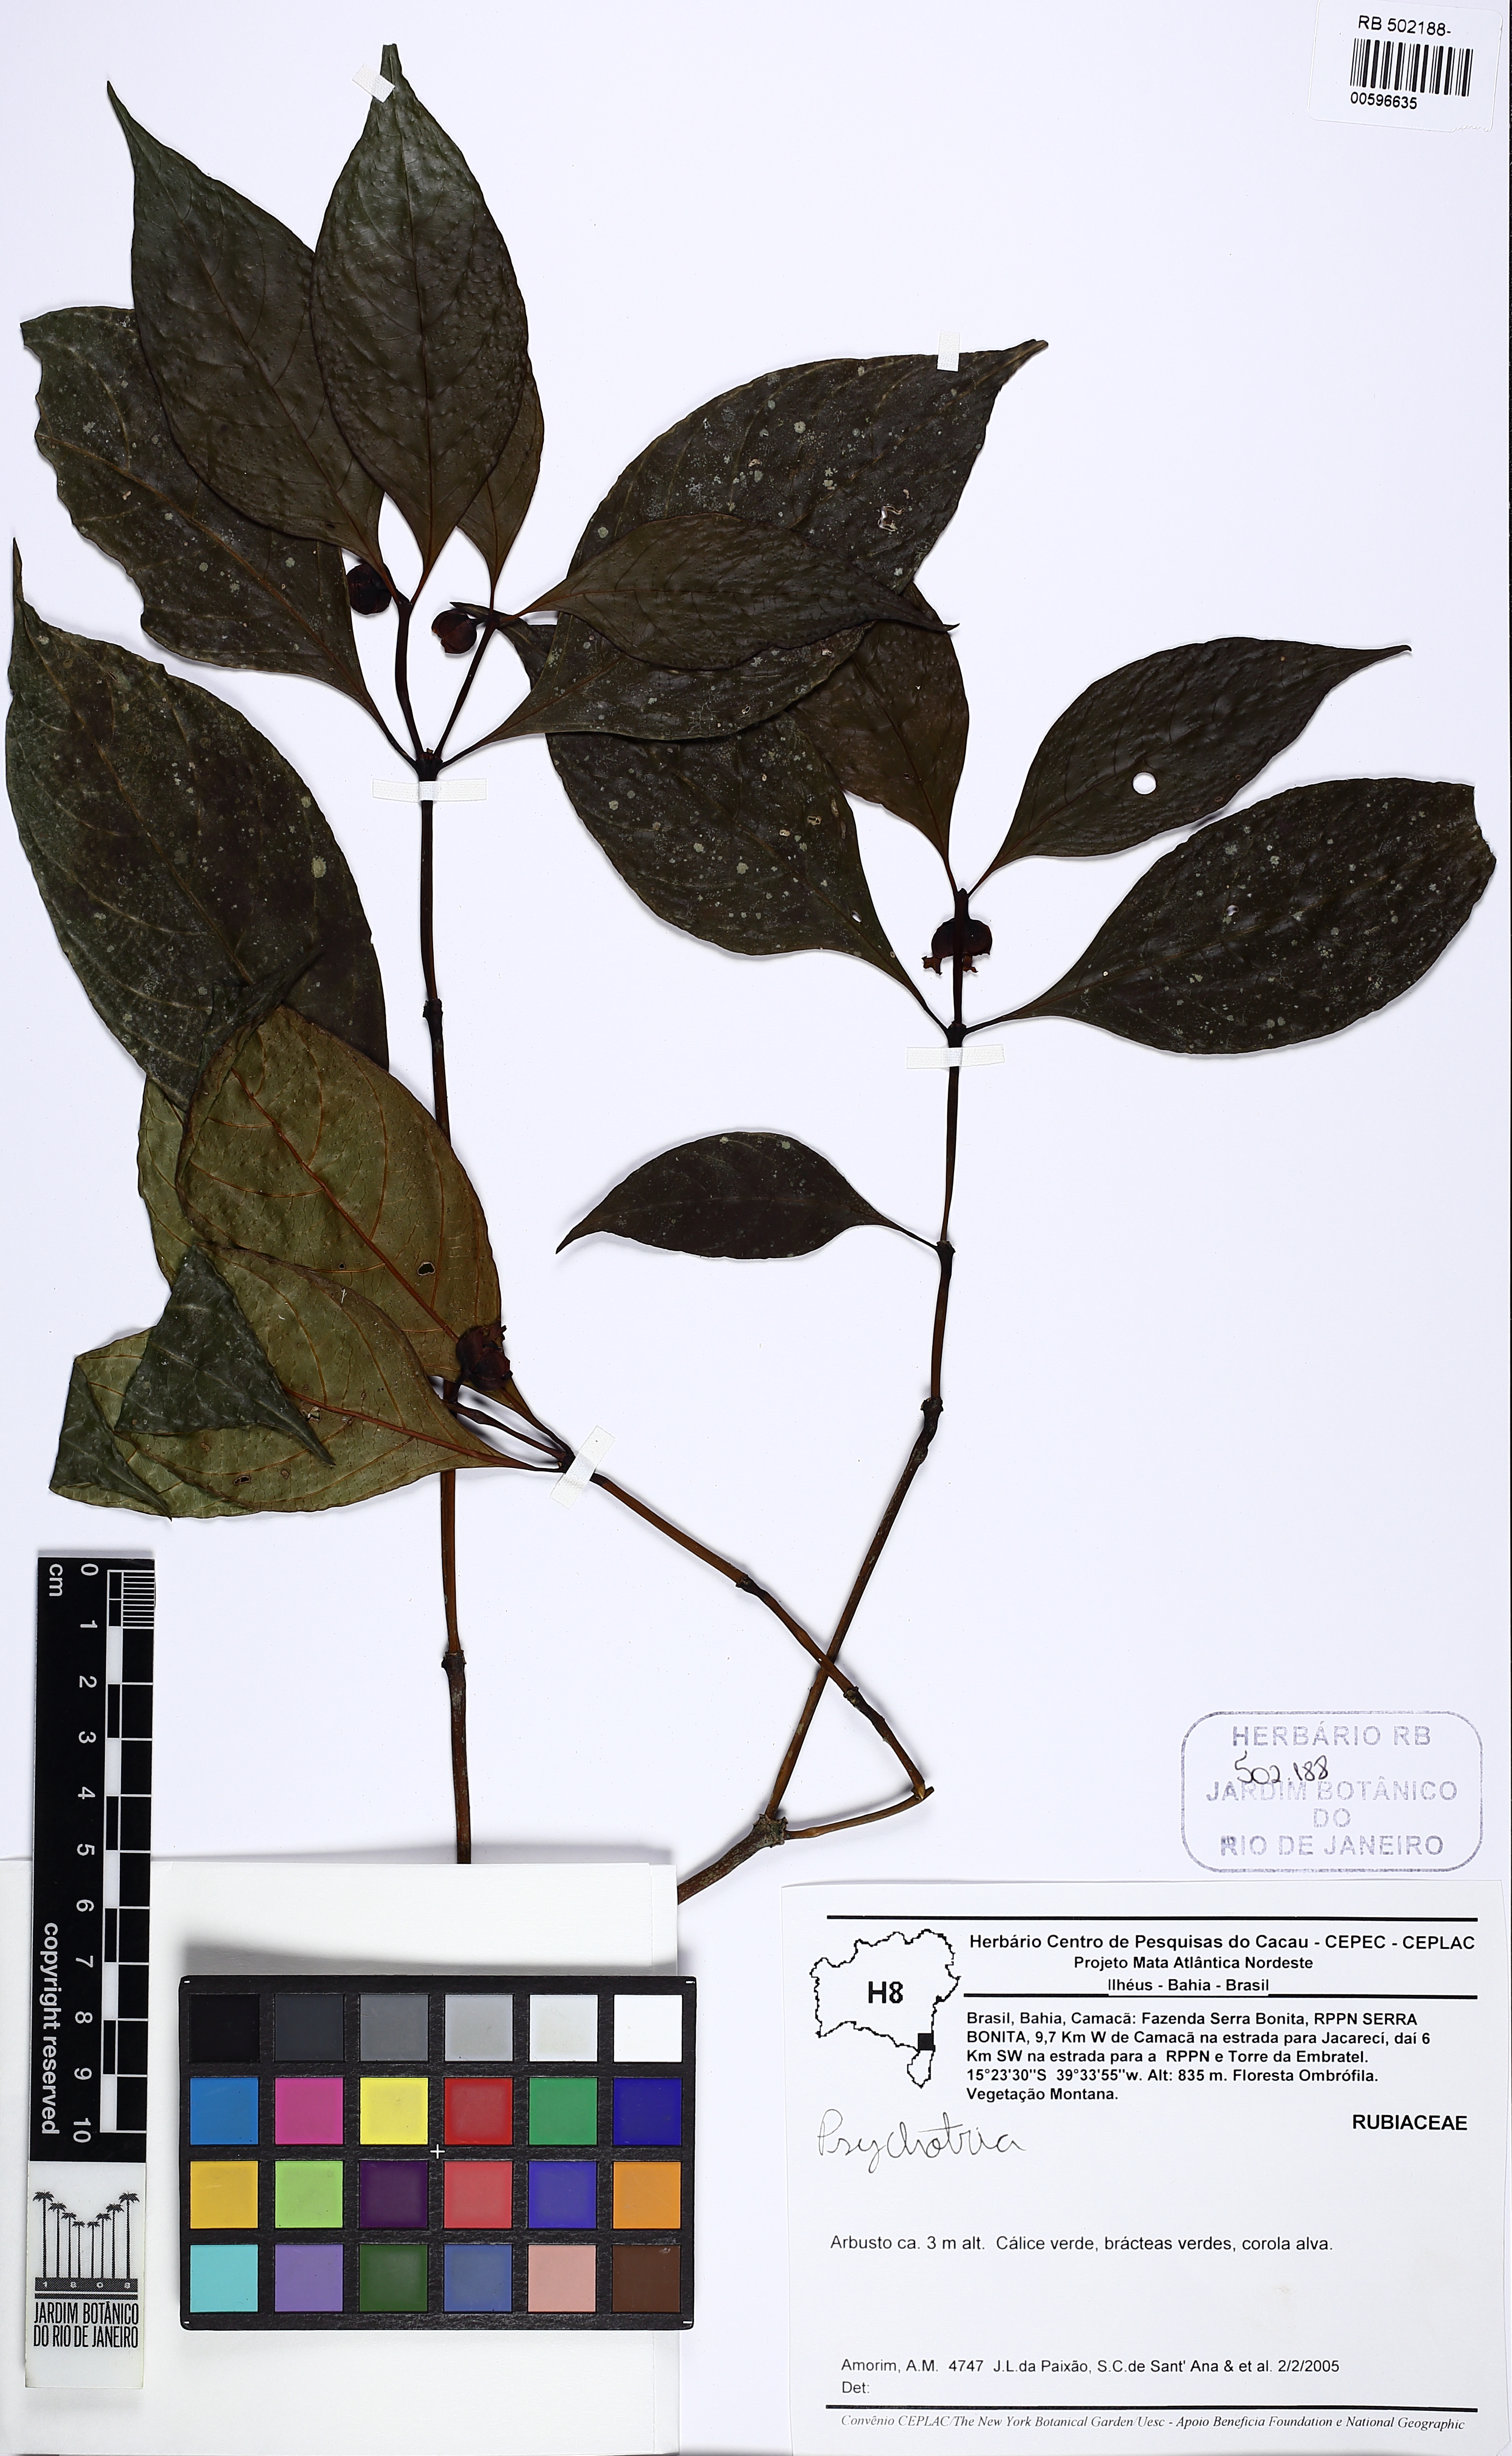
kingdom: Plantae
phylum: Tracheophyta
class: Magnoliopsida
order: Gentianales
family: Rubiaceae
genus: Palicourea
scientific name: Palicourea dichotoma
